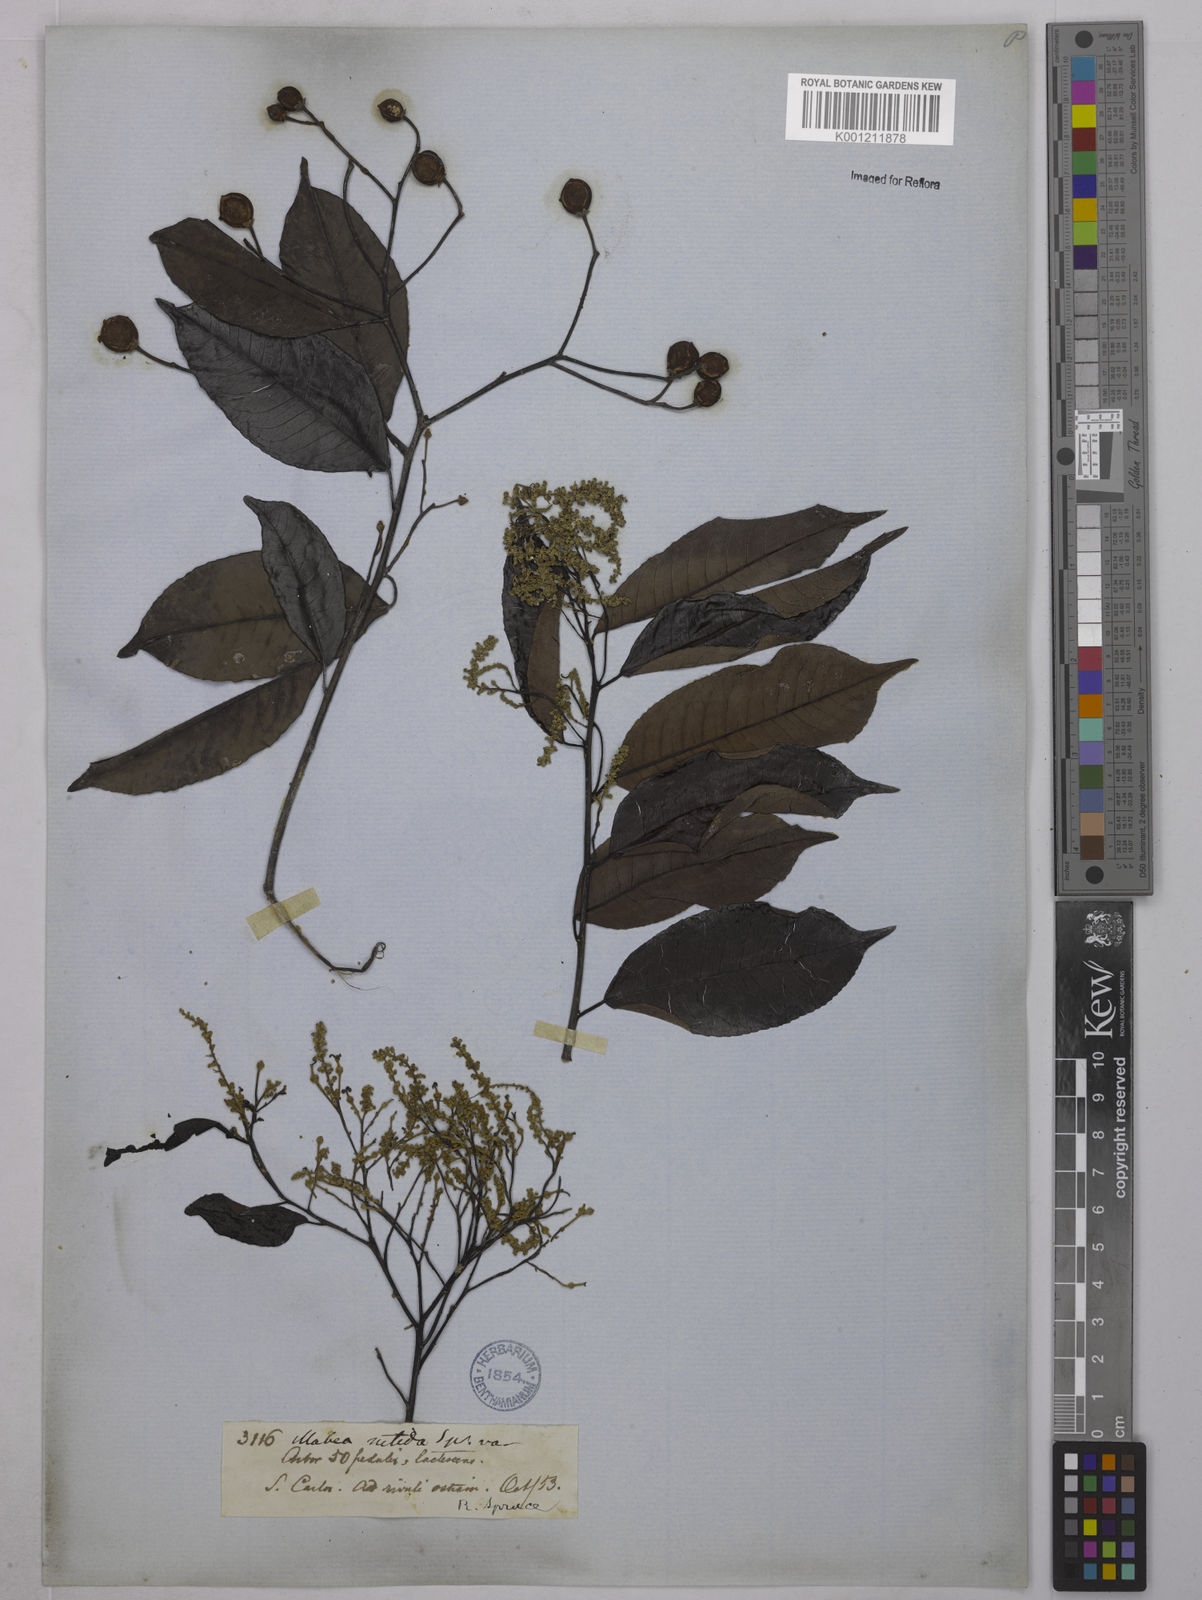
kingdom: Plantae
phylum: Tracheophyta
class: Magnoliopsida
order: Malpighiales
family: Euphorbiaceae
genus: Mabea
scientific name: Mabea nitida
